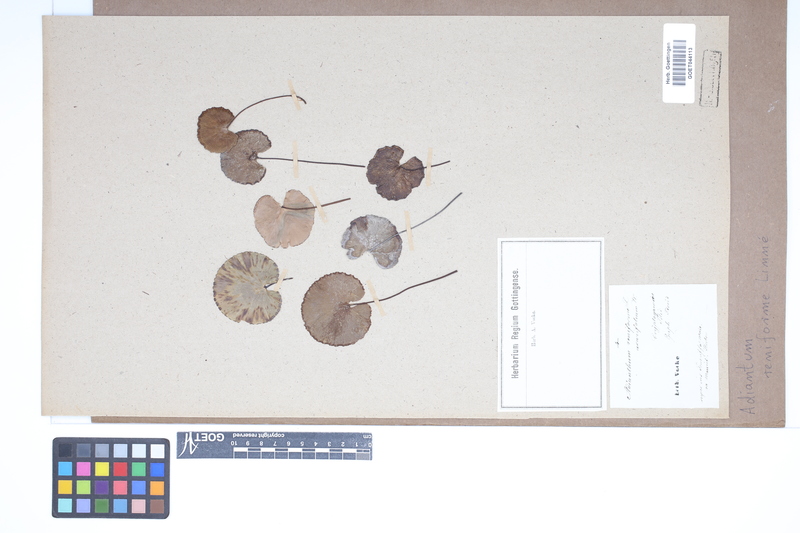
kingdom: Plantae
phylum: Tracheophyta
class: Polypodiopsida
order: Polypodiales
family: Pteridaceae
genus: Adiantum
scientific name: Adiantum reniforme
